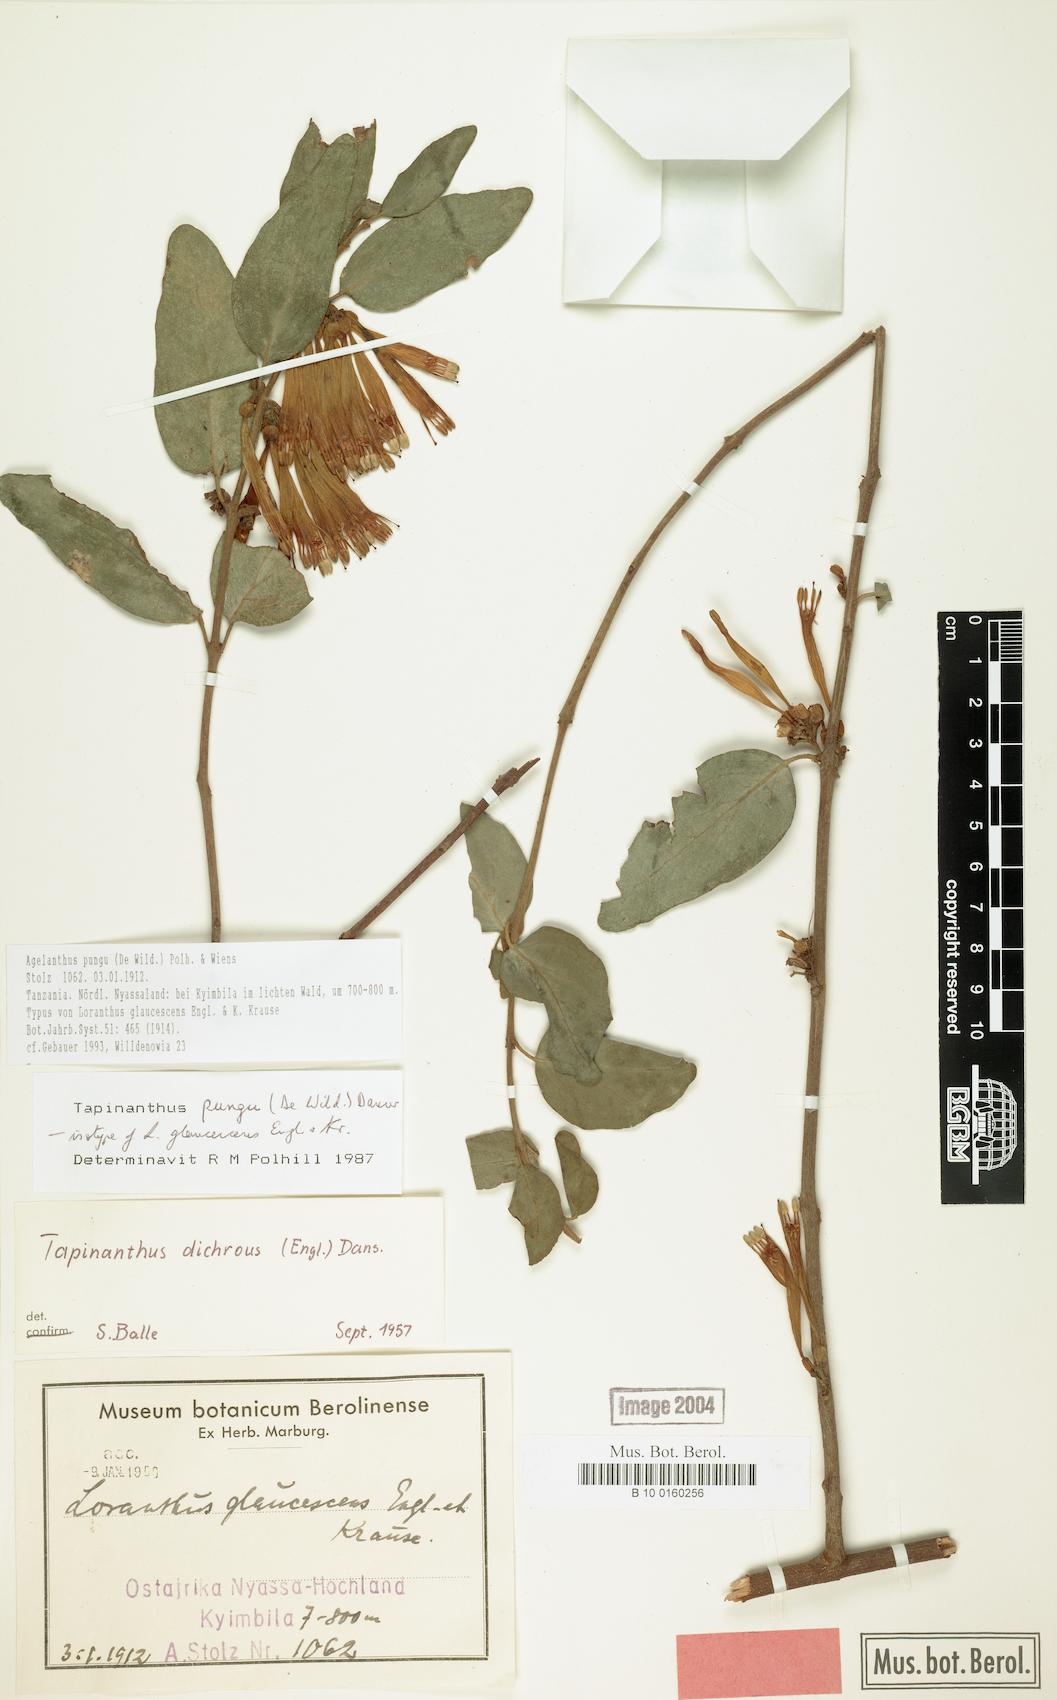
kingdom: Plantae
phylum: Tracheophyta
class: Magnoliopsida
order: Santalales
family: Loranthaceae
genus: Agelanthus
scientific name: Agelanthus pungu
